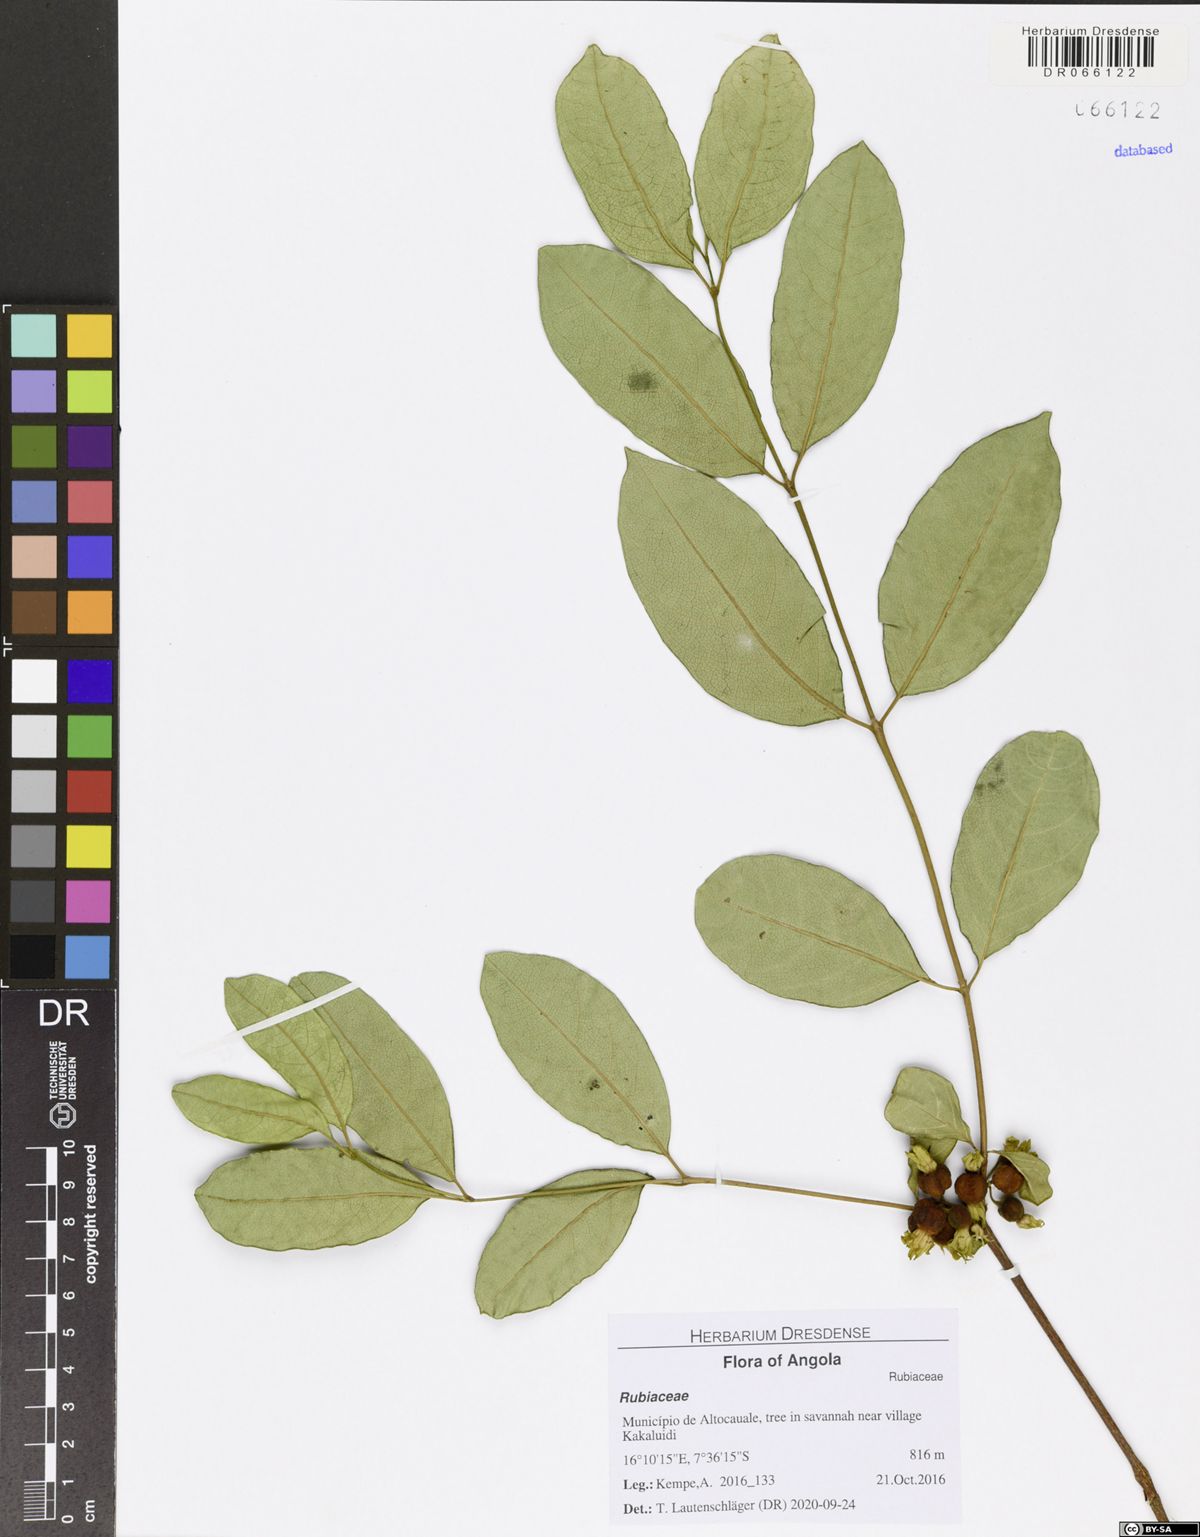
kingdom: Plantae
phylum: Tracheophyta
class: Magnoliopsida
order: Gentianales
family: Rubiaceae
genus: Vangueria
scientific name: Vangueria ferruginea
